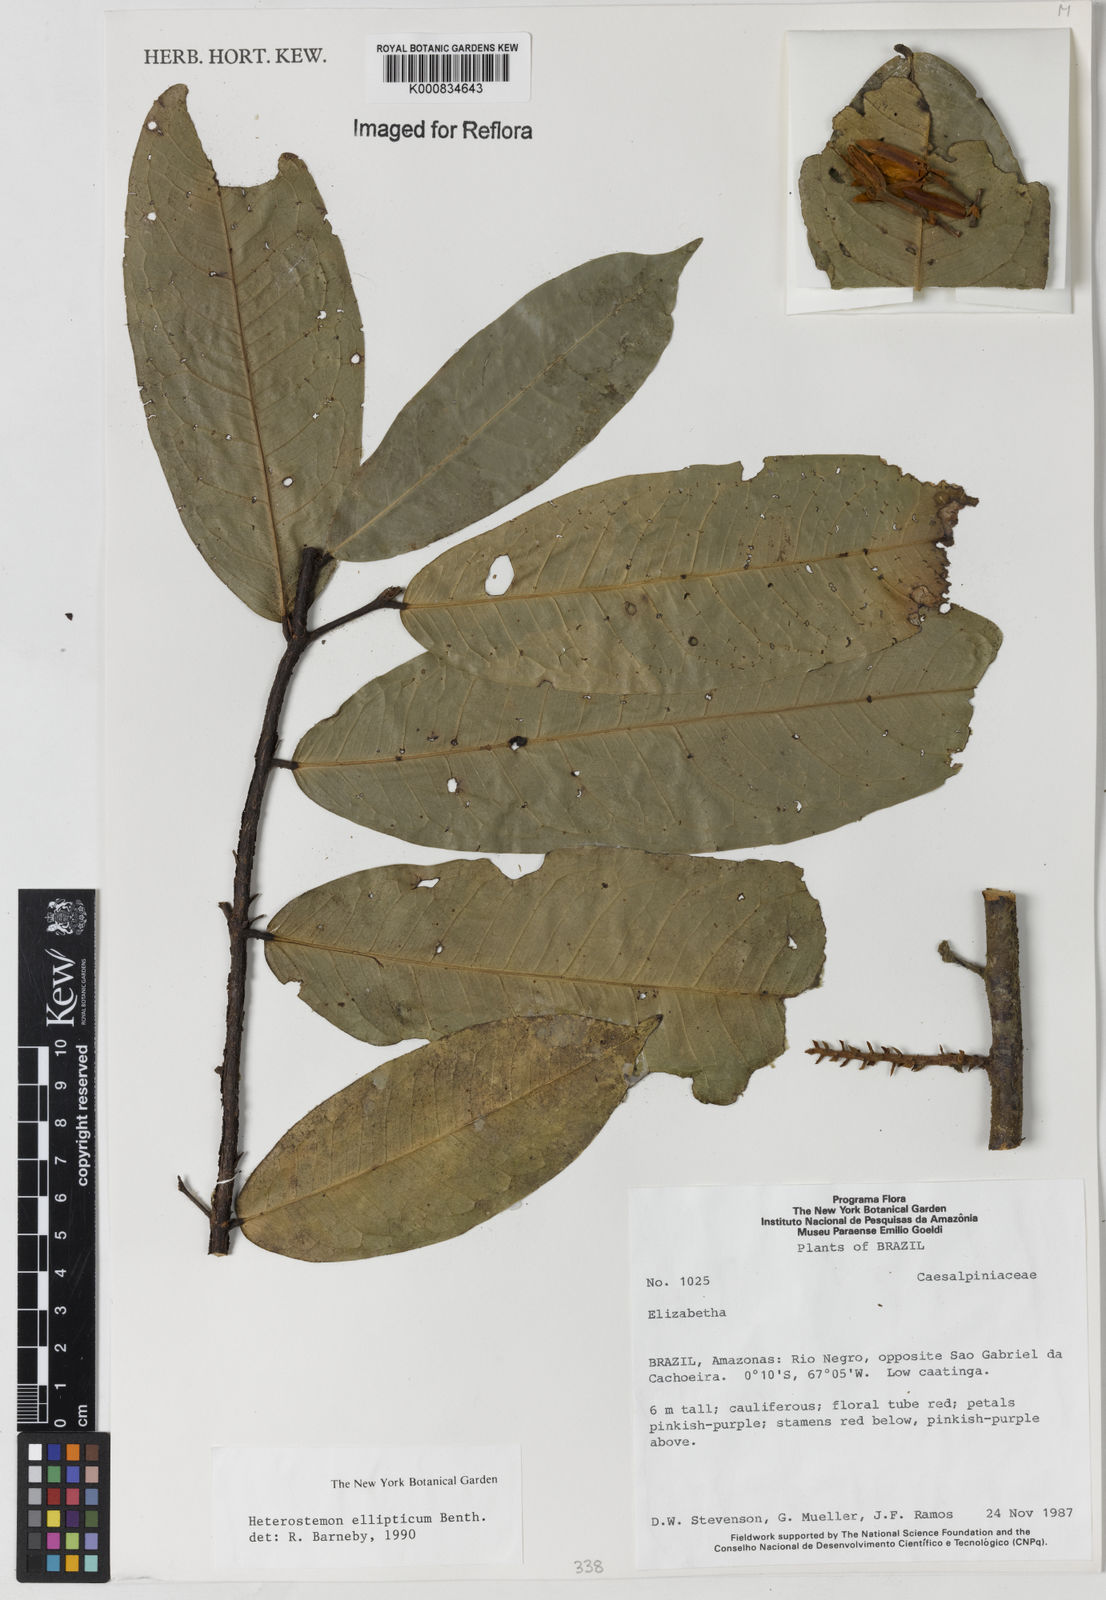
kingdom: Plantae
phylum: Tracheophyta
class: Magnoliopsida
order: Fabales
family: Fabaceae
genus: Heterostemon
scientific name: Heterostemon ellipticus
